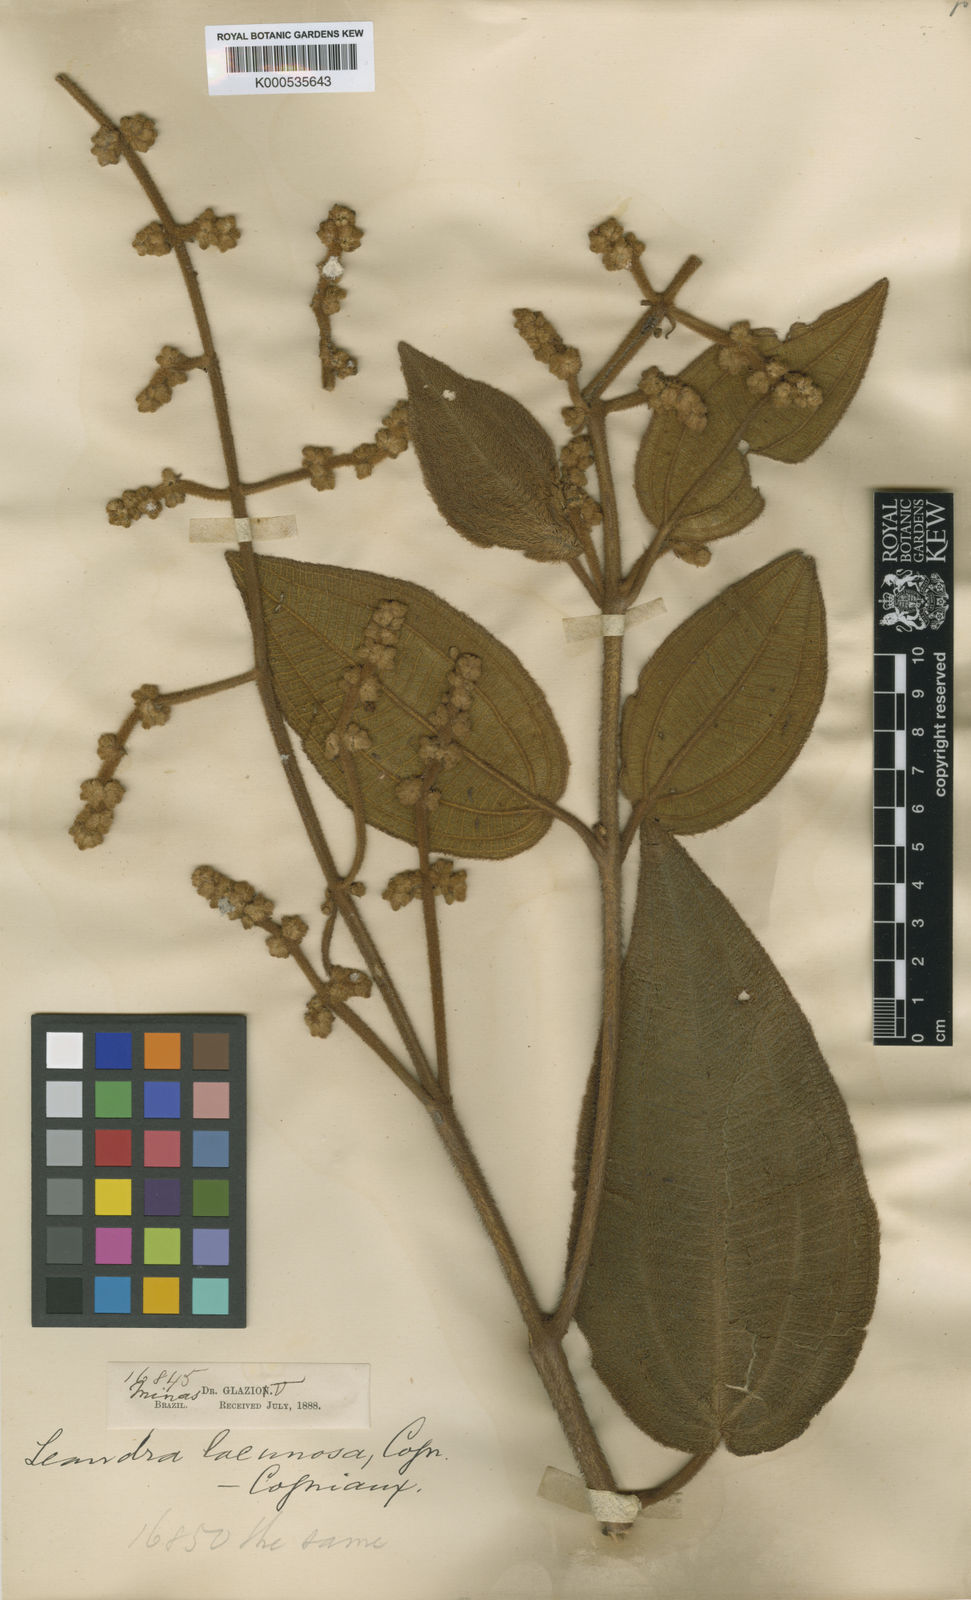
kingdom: Plantae
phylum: Tracheophyta
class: Magnoliopsida
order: Myrtales
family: Melastomataceae
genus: Miconia
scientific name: Miconia lacunosa
